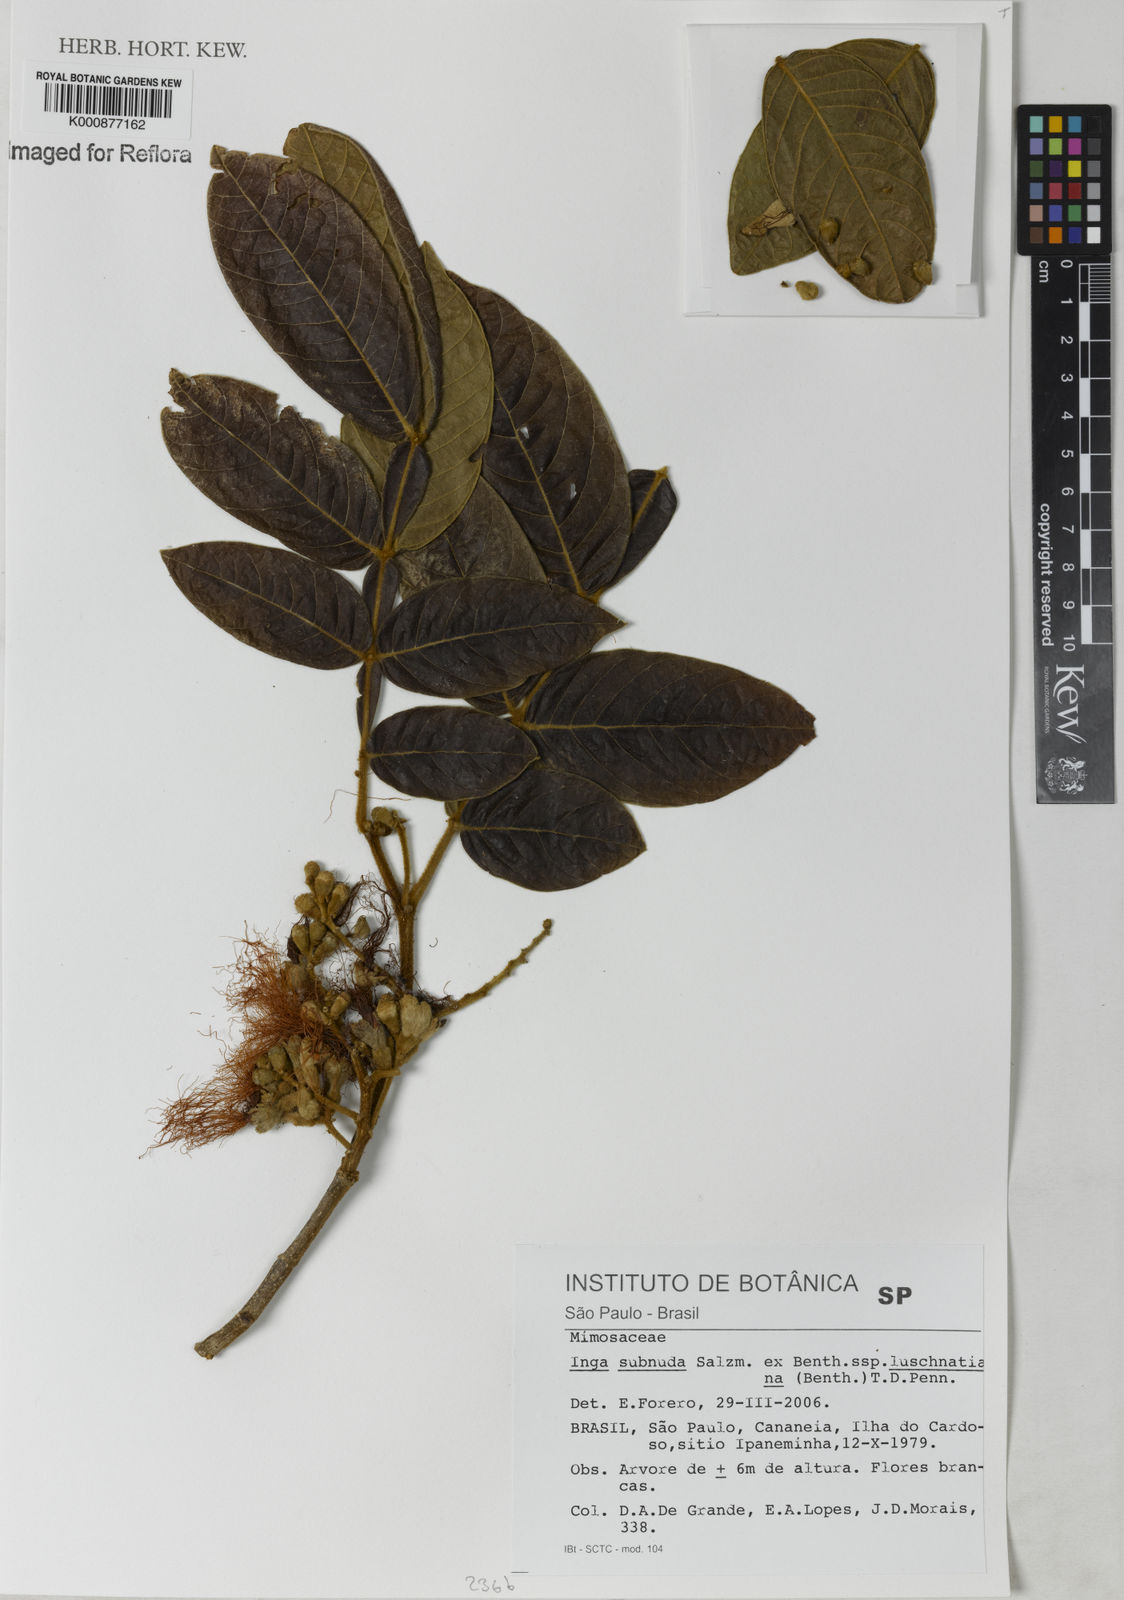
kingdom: Plantae
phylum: Tracheophyta
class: Magnoliopsida
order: Fabales
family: Fabaceae
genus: Inga
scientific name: Inga subnuda
